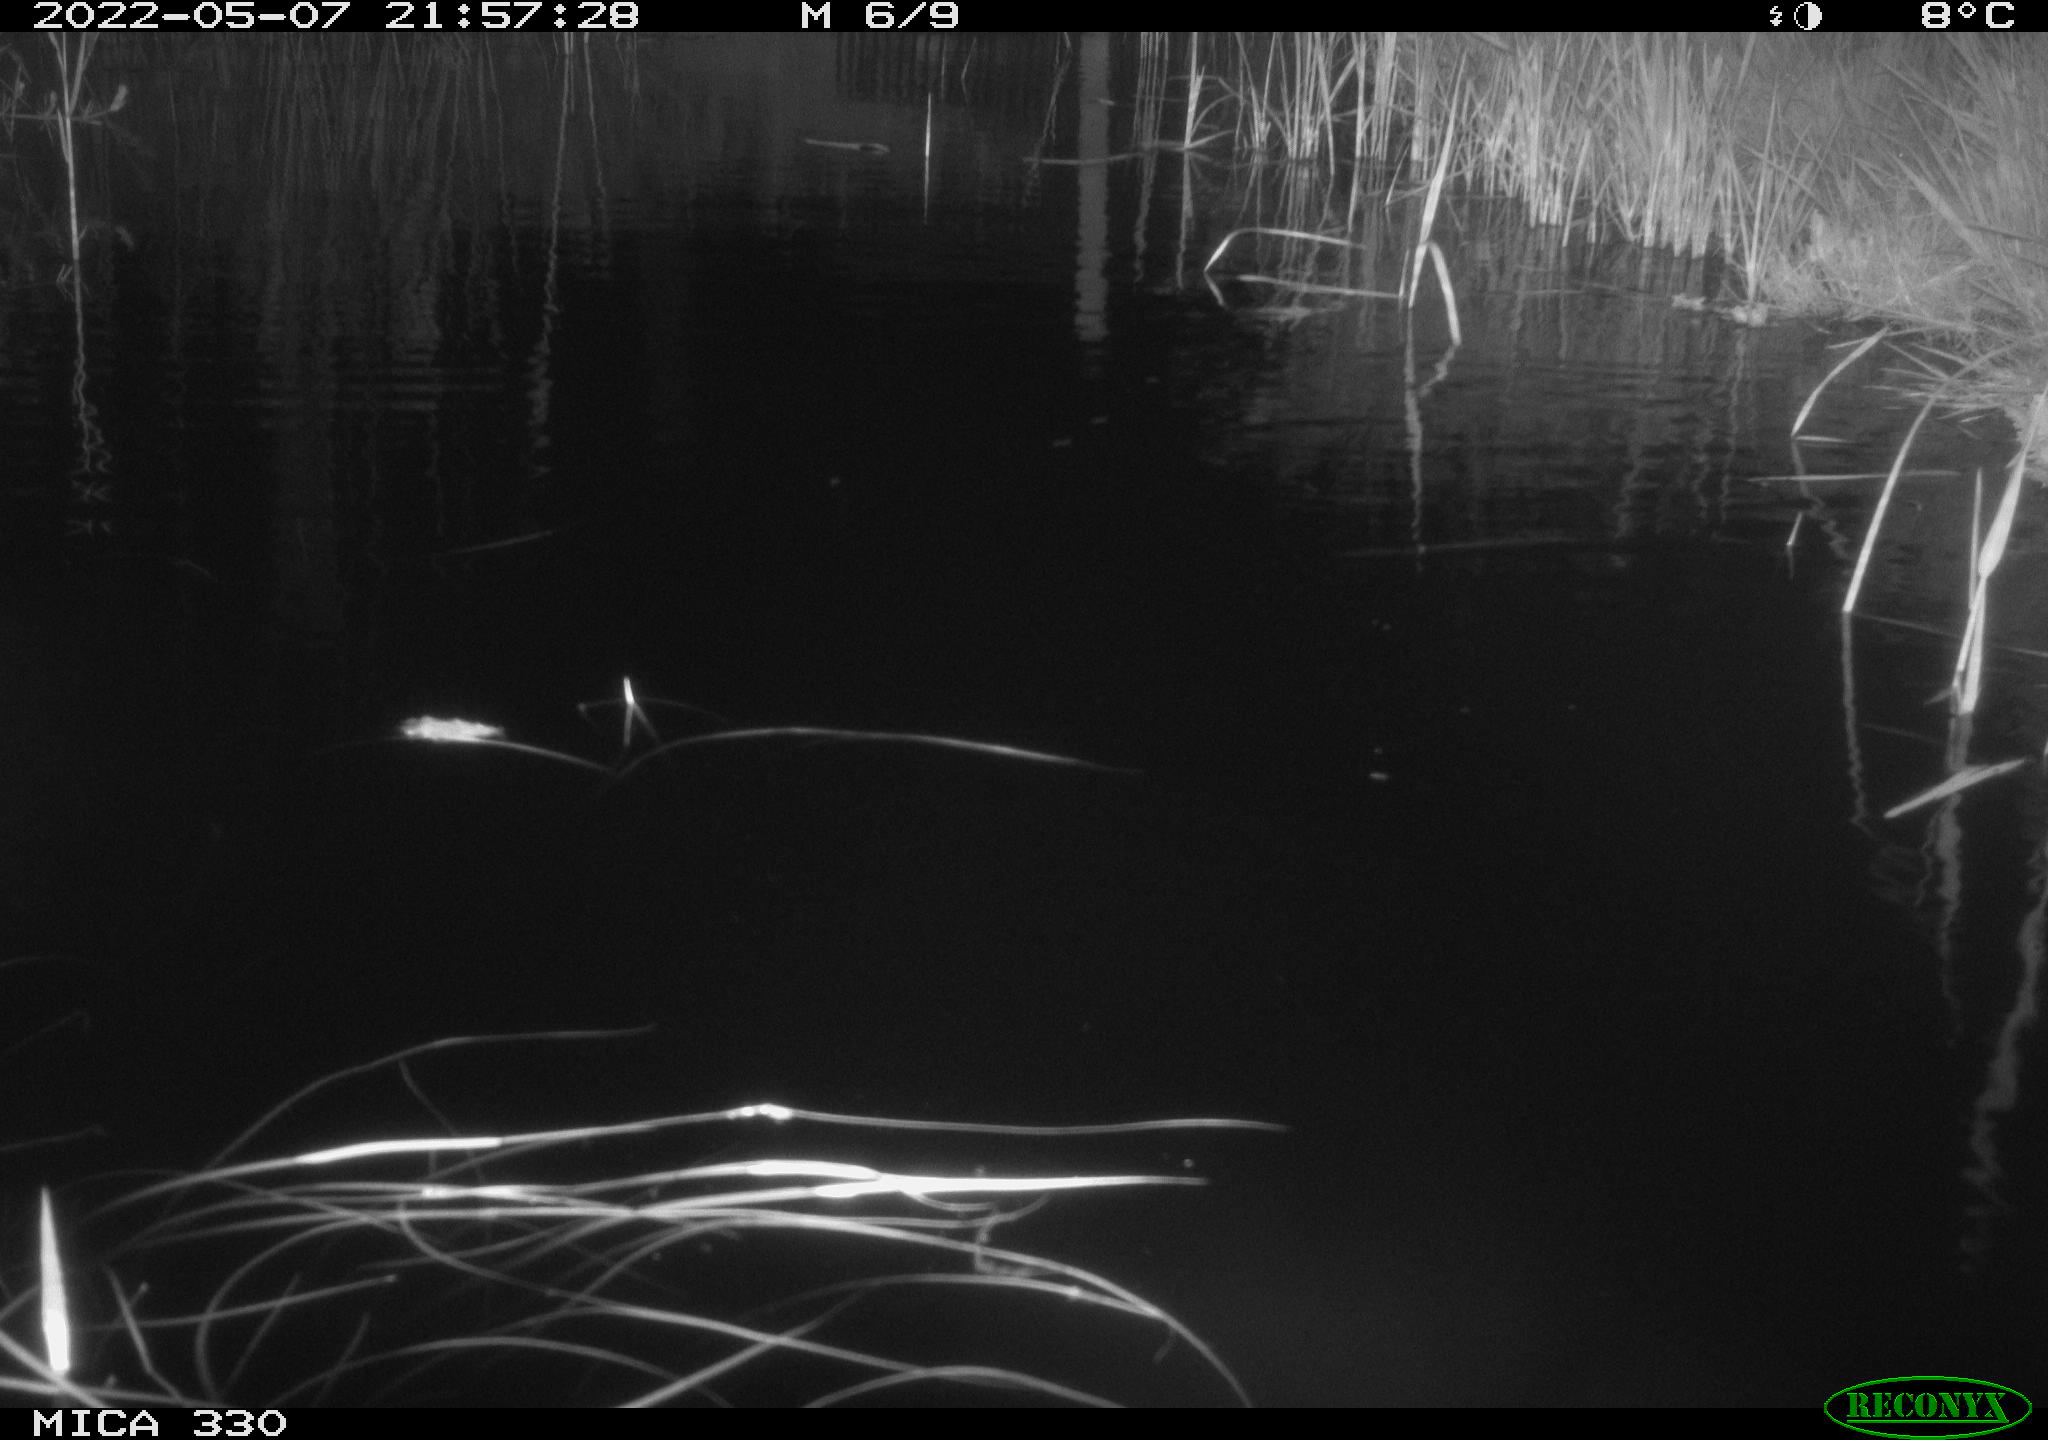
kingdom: Animalia
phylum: Chordata
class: Aves
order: Anseriformes
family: Anatidae
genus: Anas
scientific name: Anas platyrhynchos
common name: Mallard
